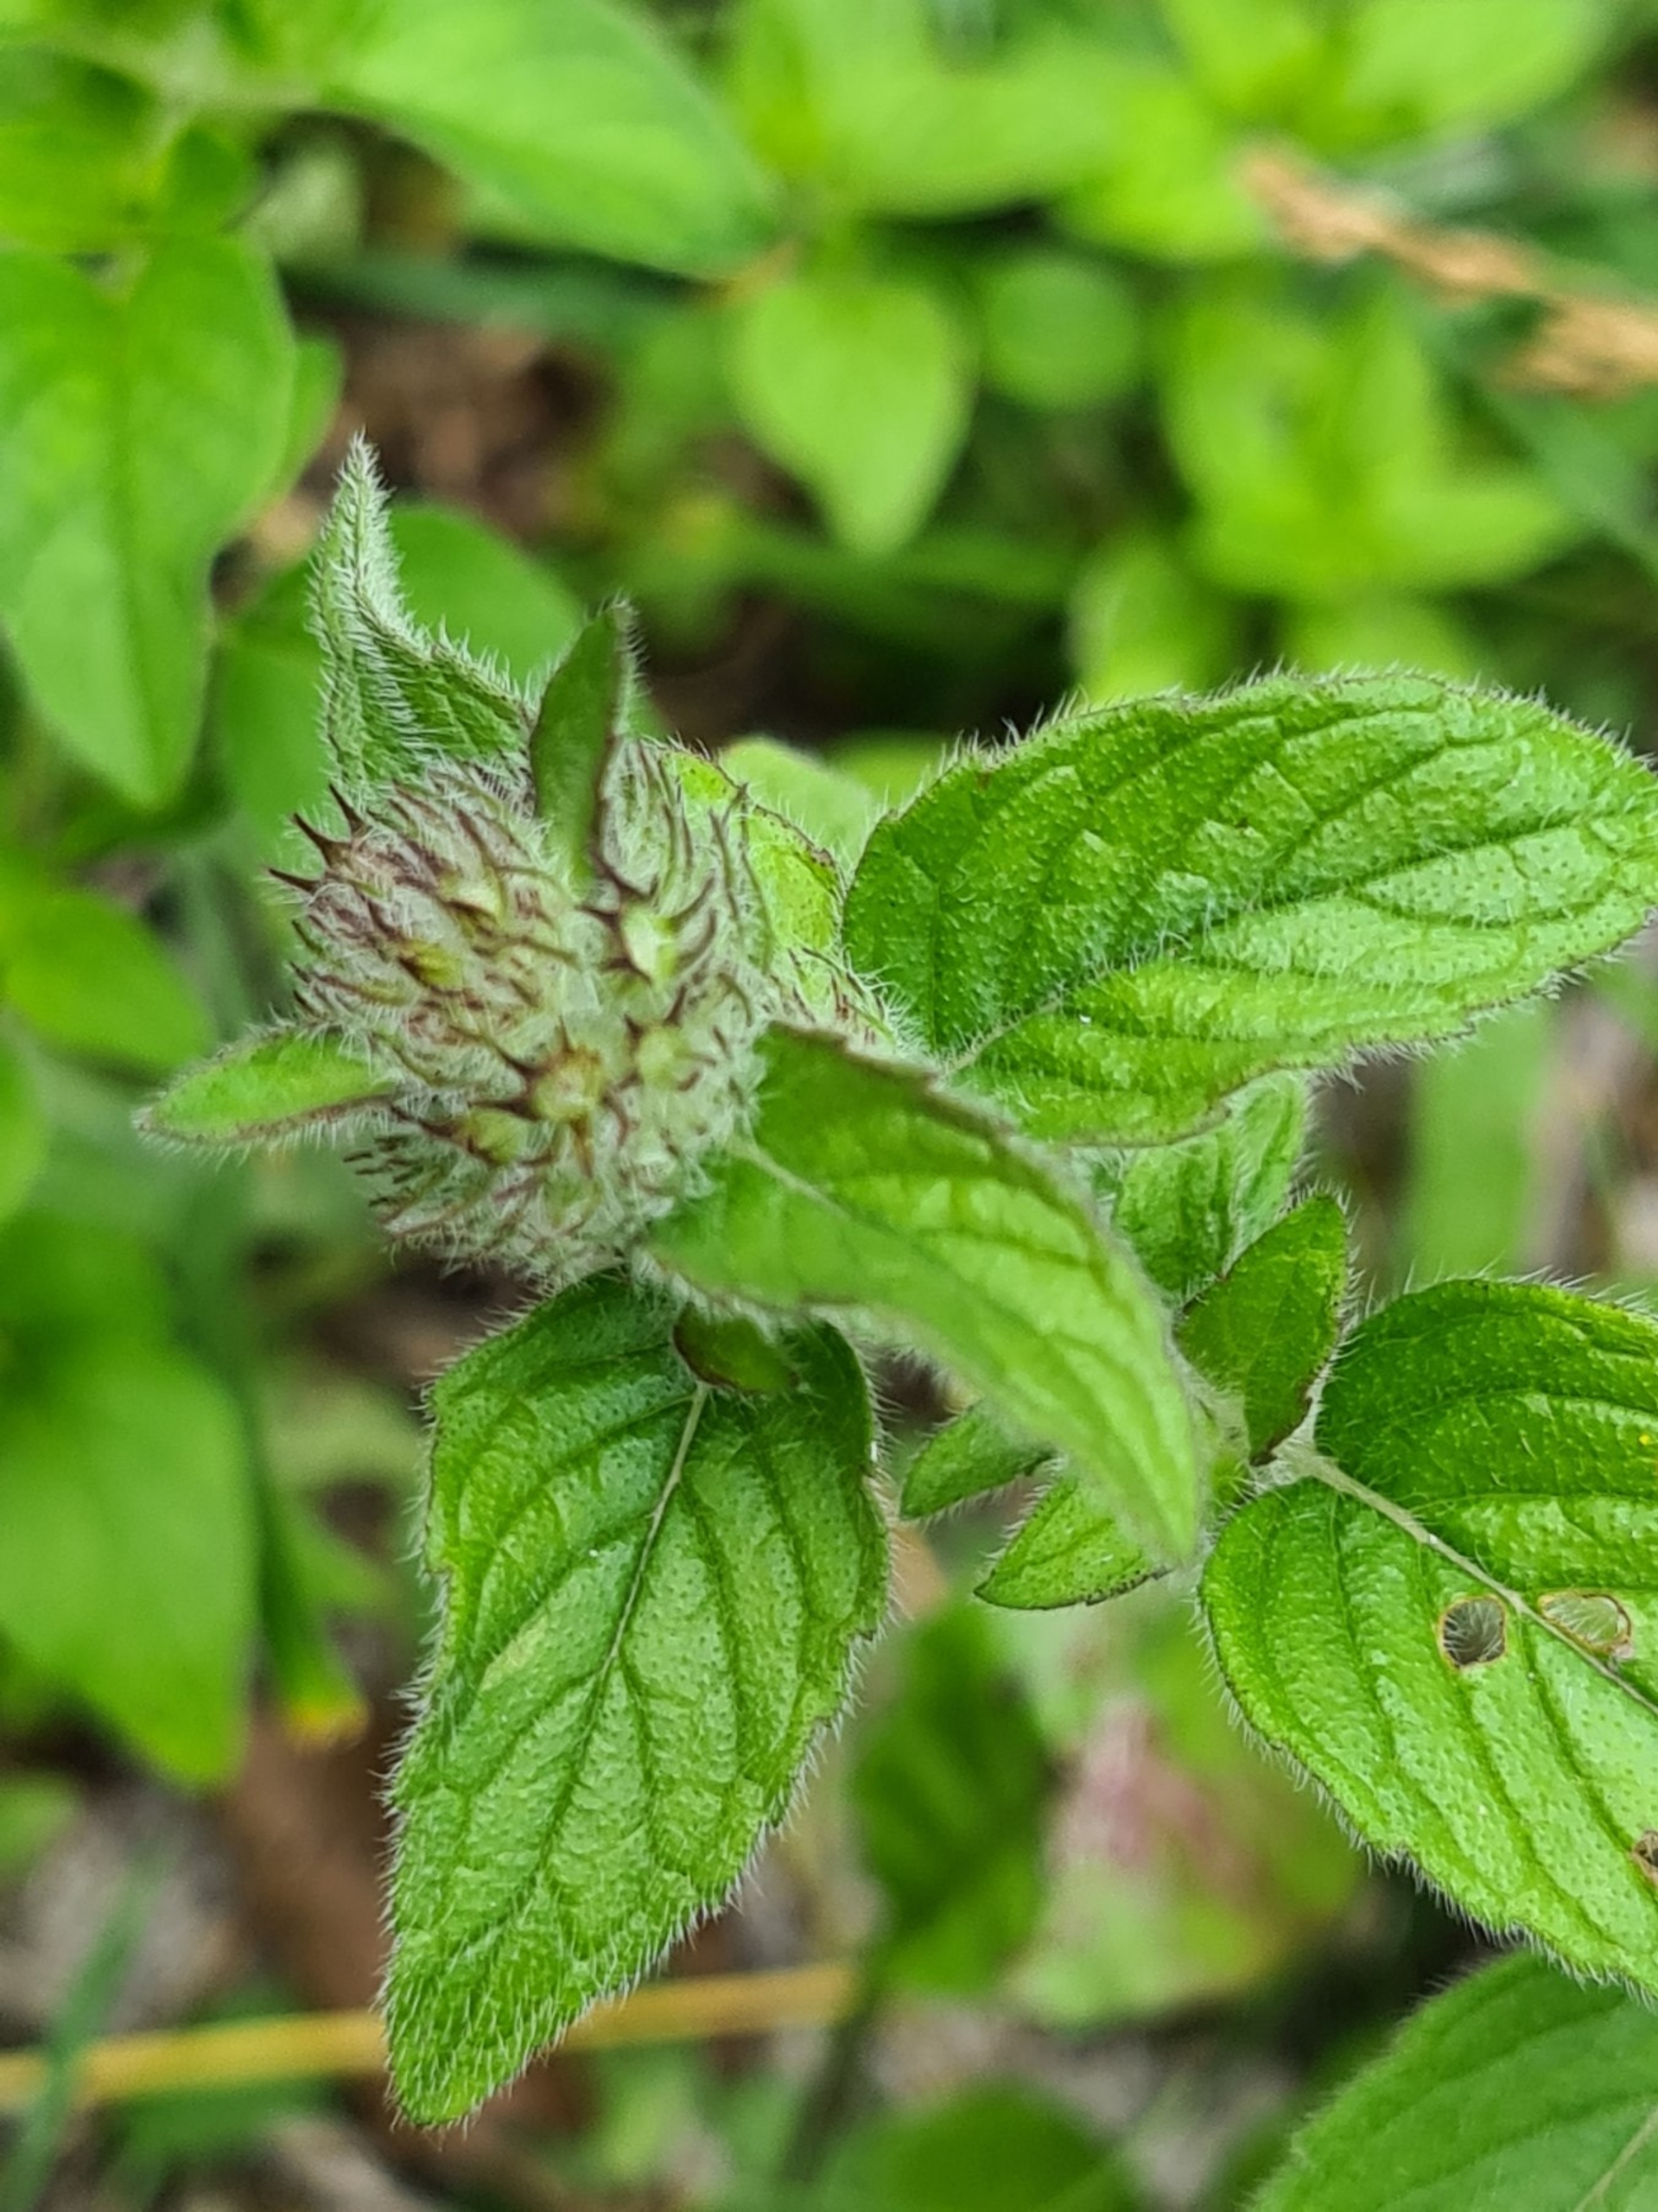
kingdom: Plantae
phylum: Tracheophyta
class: Magnoliopsida
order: Lamiales
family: Lamiaceae
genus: Clinopodium
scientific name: Clinopodium vulgare
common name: Kransbørste
